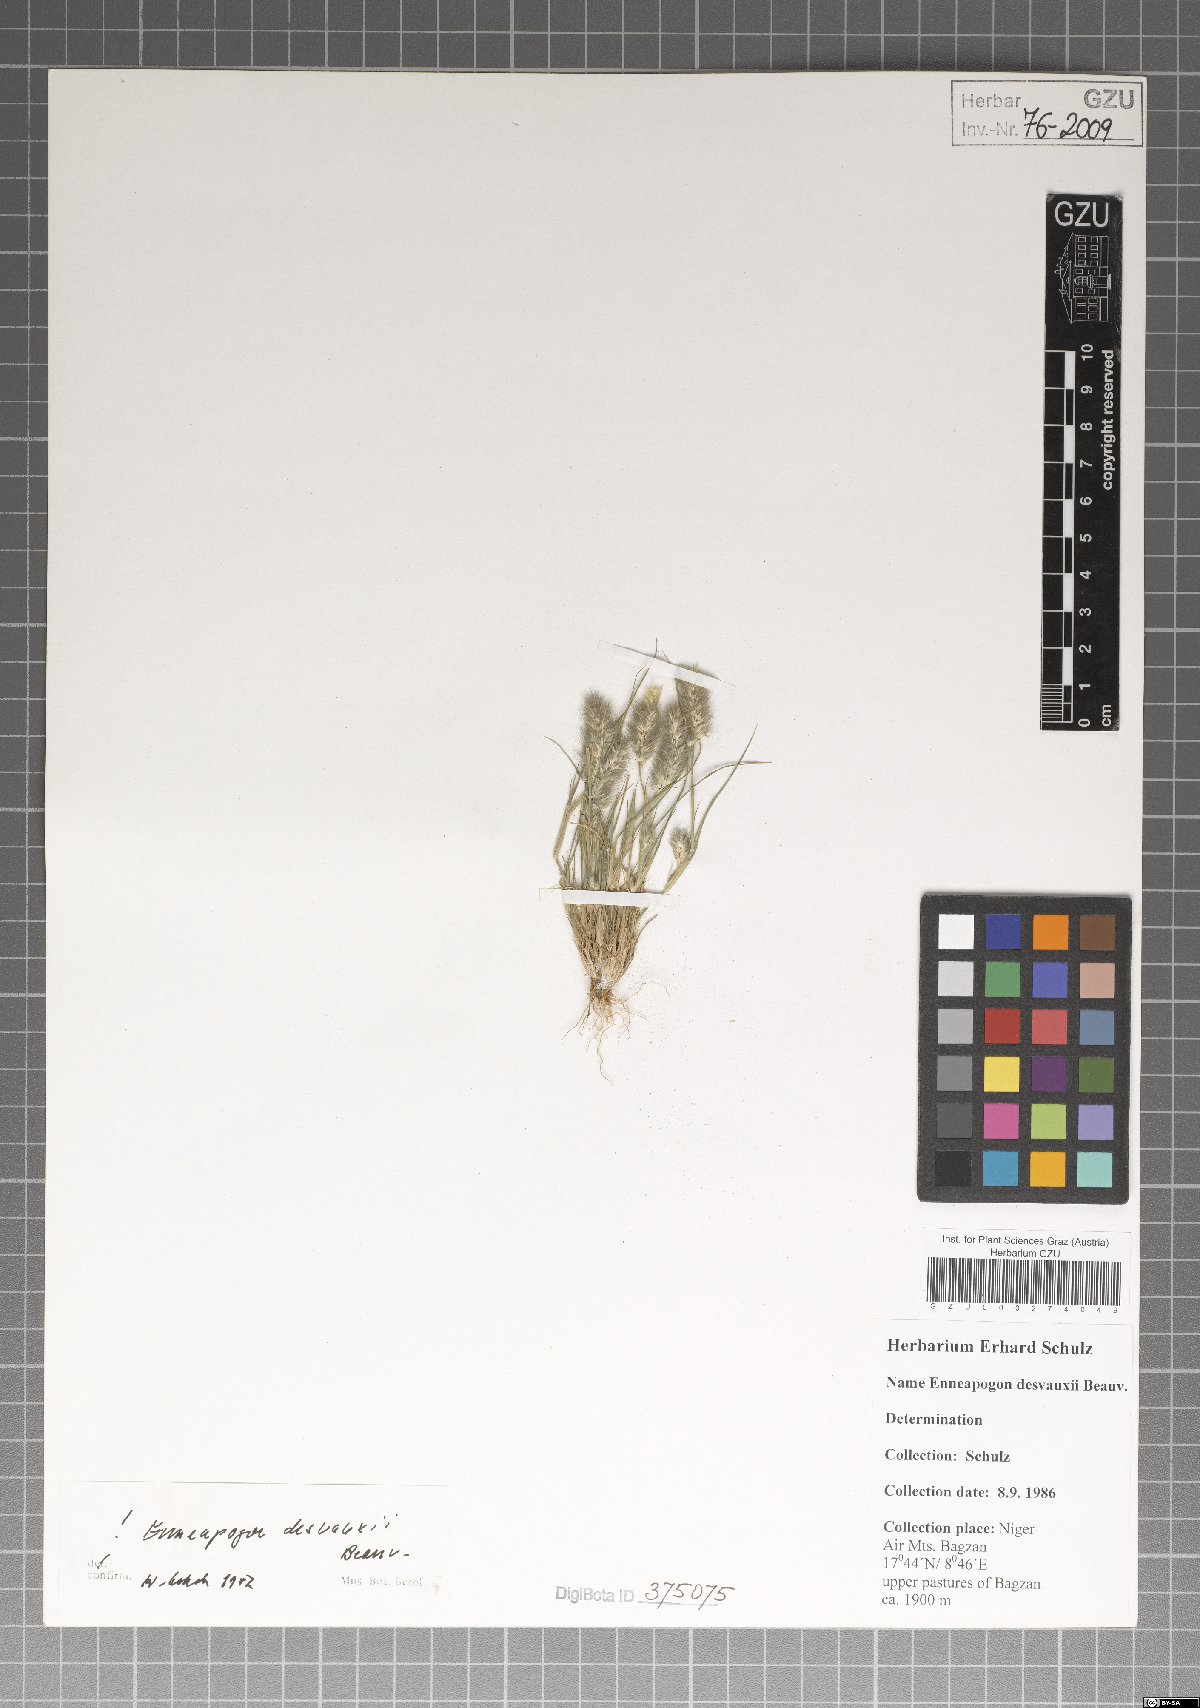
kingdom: Plantae
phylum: Tracheophyta
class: Liliopsida
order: Poales
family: Poaceae
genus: Enneapogon
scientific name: Enneapogon desvauxii
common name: Feather pappus grass
